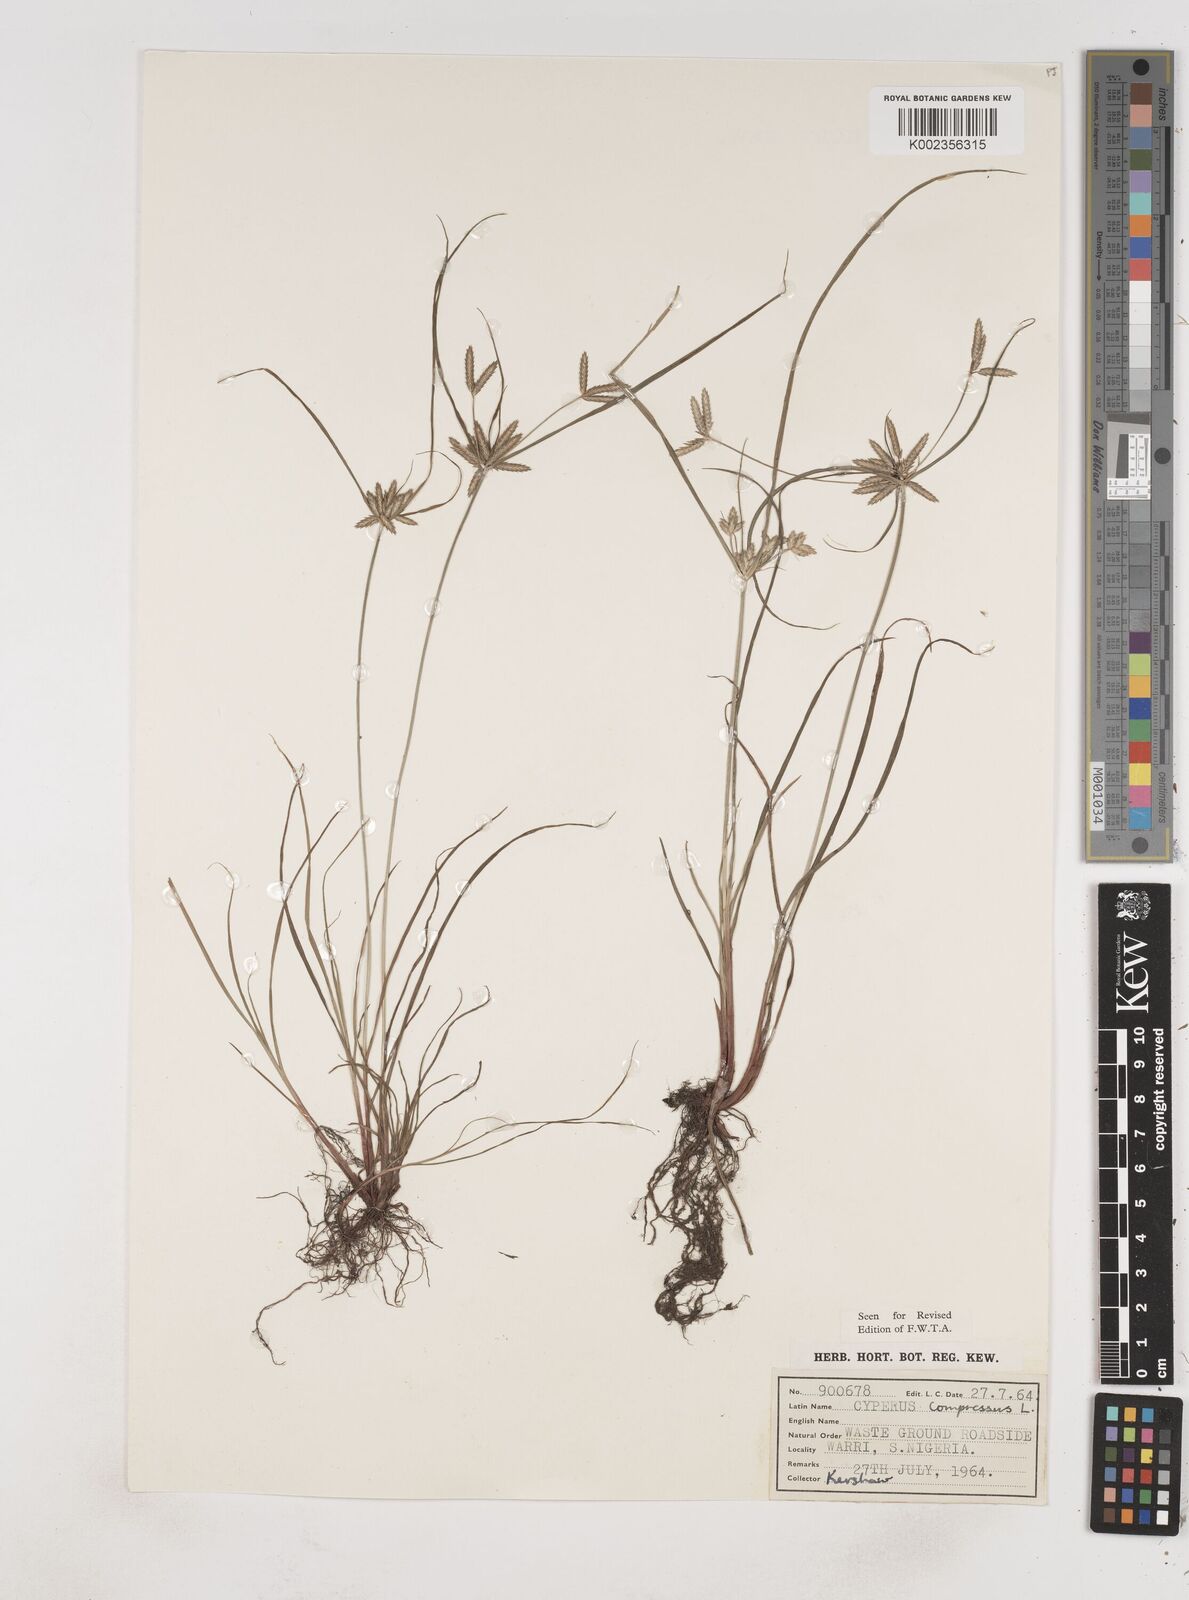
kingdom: Plantae
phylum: Tracheophyta
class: Liliopsida
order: Poales
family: Cyperaceae
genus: Cyperus
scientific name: Cyperus compressus
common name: Poorland flatsedge
